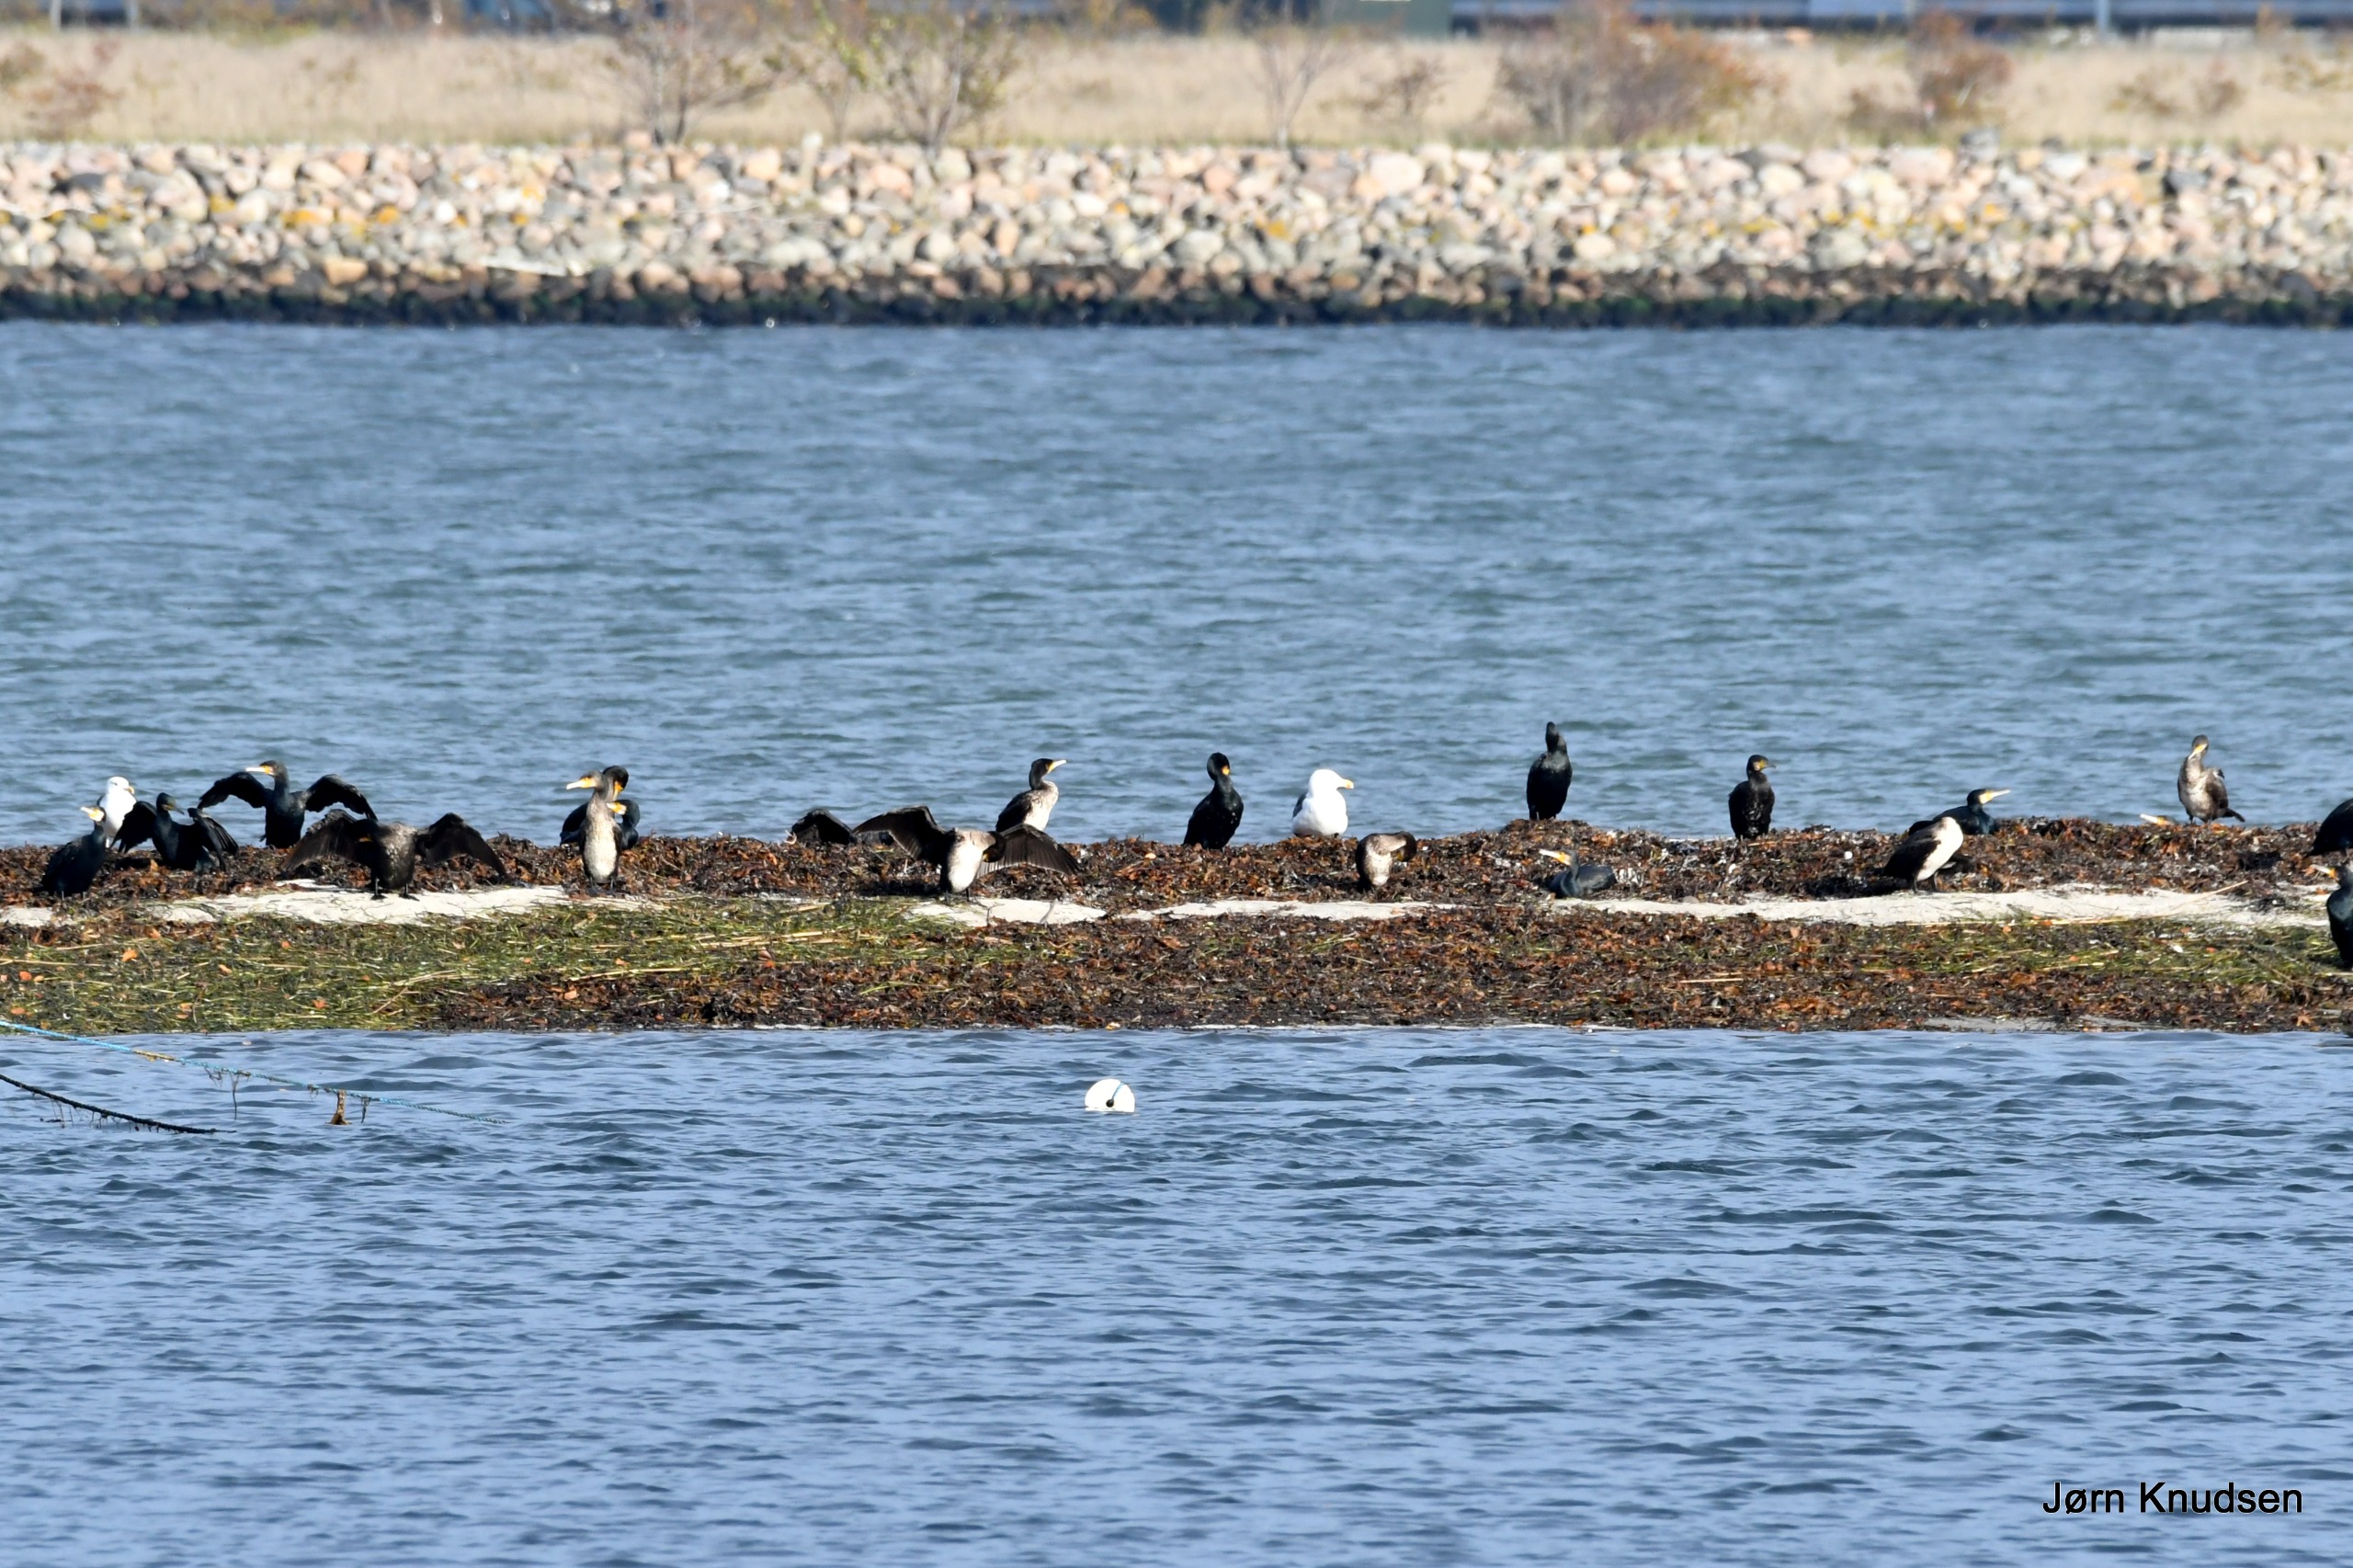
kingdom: Animalia
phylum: Chordata
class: Aves
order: Suliformes
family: Phalacrocoracidae
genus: Phalacrocorax
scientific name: Phalacrocorax carbo
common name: Skarv
